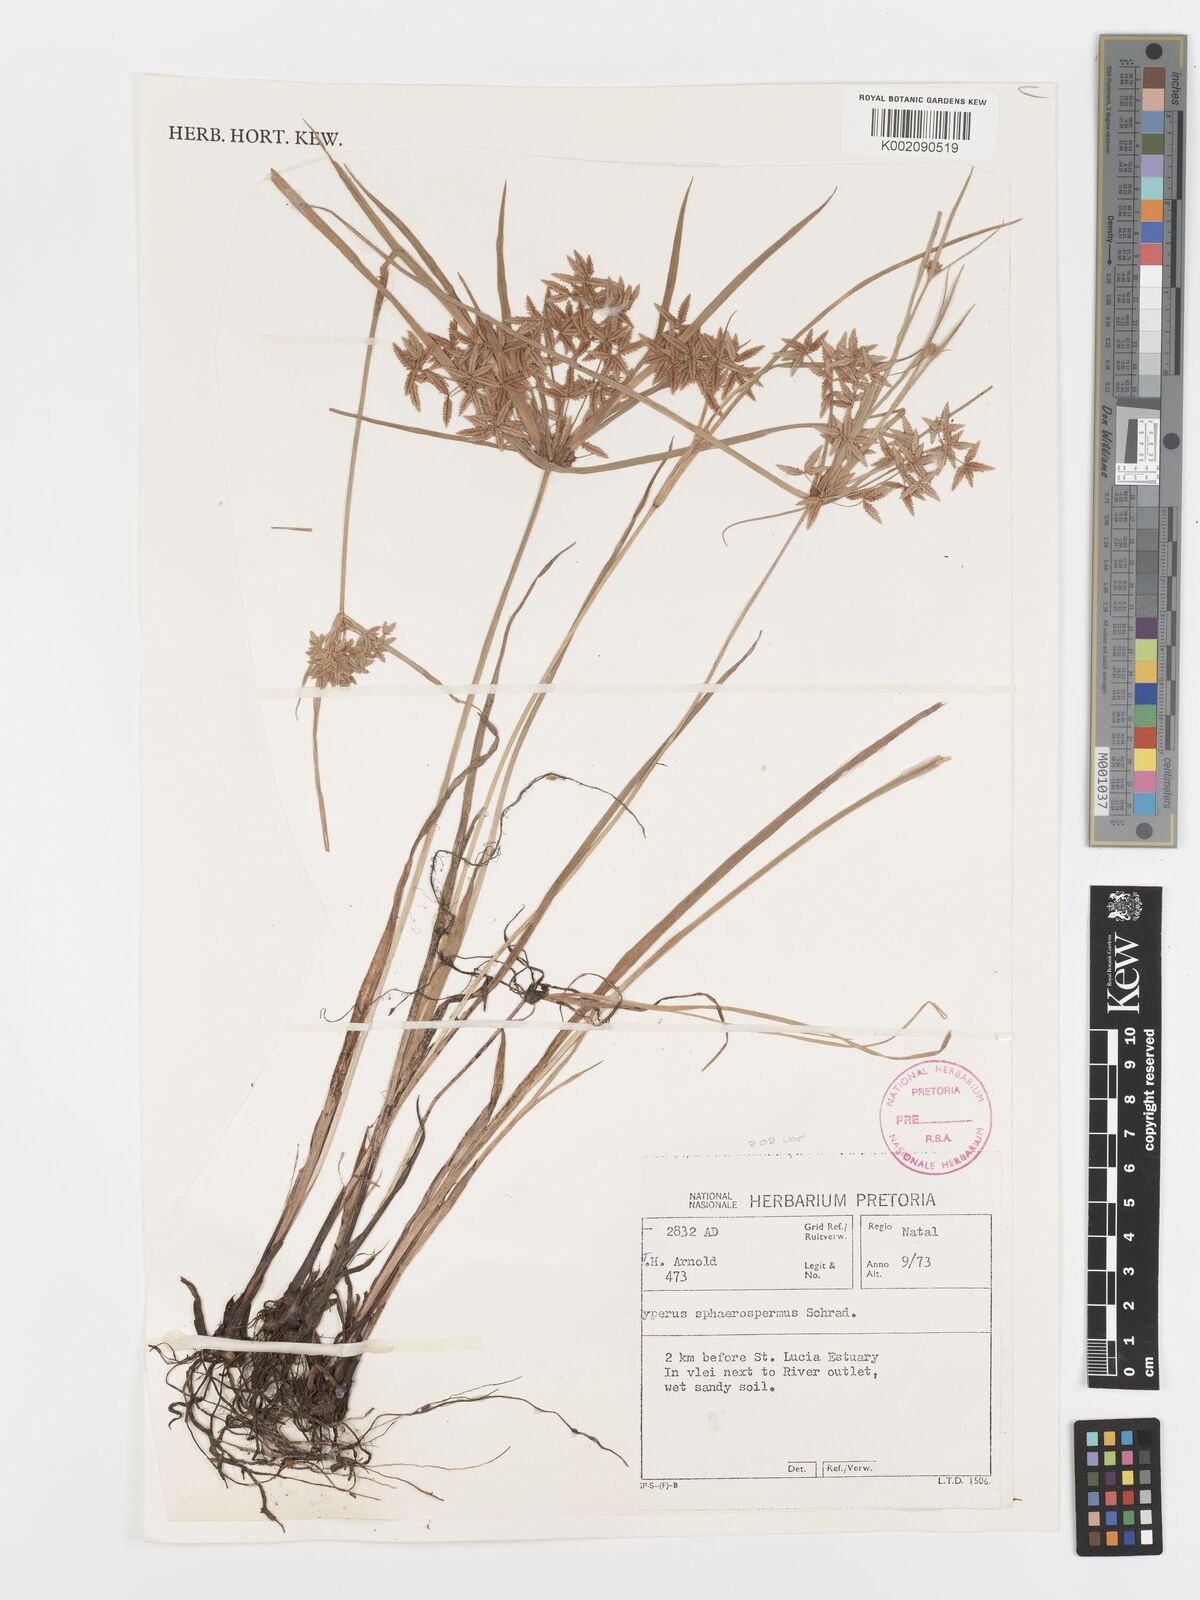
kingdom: Plantae
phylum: Tracheophyta
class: Liliopsida
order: Poales
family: Cyperaceae
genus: Cyperus
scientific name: Cyperus sphaerospermus
